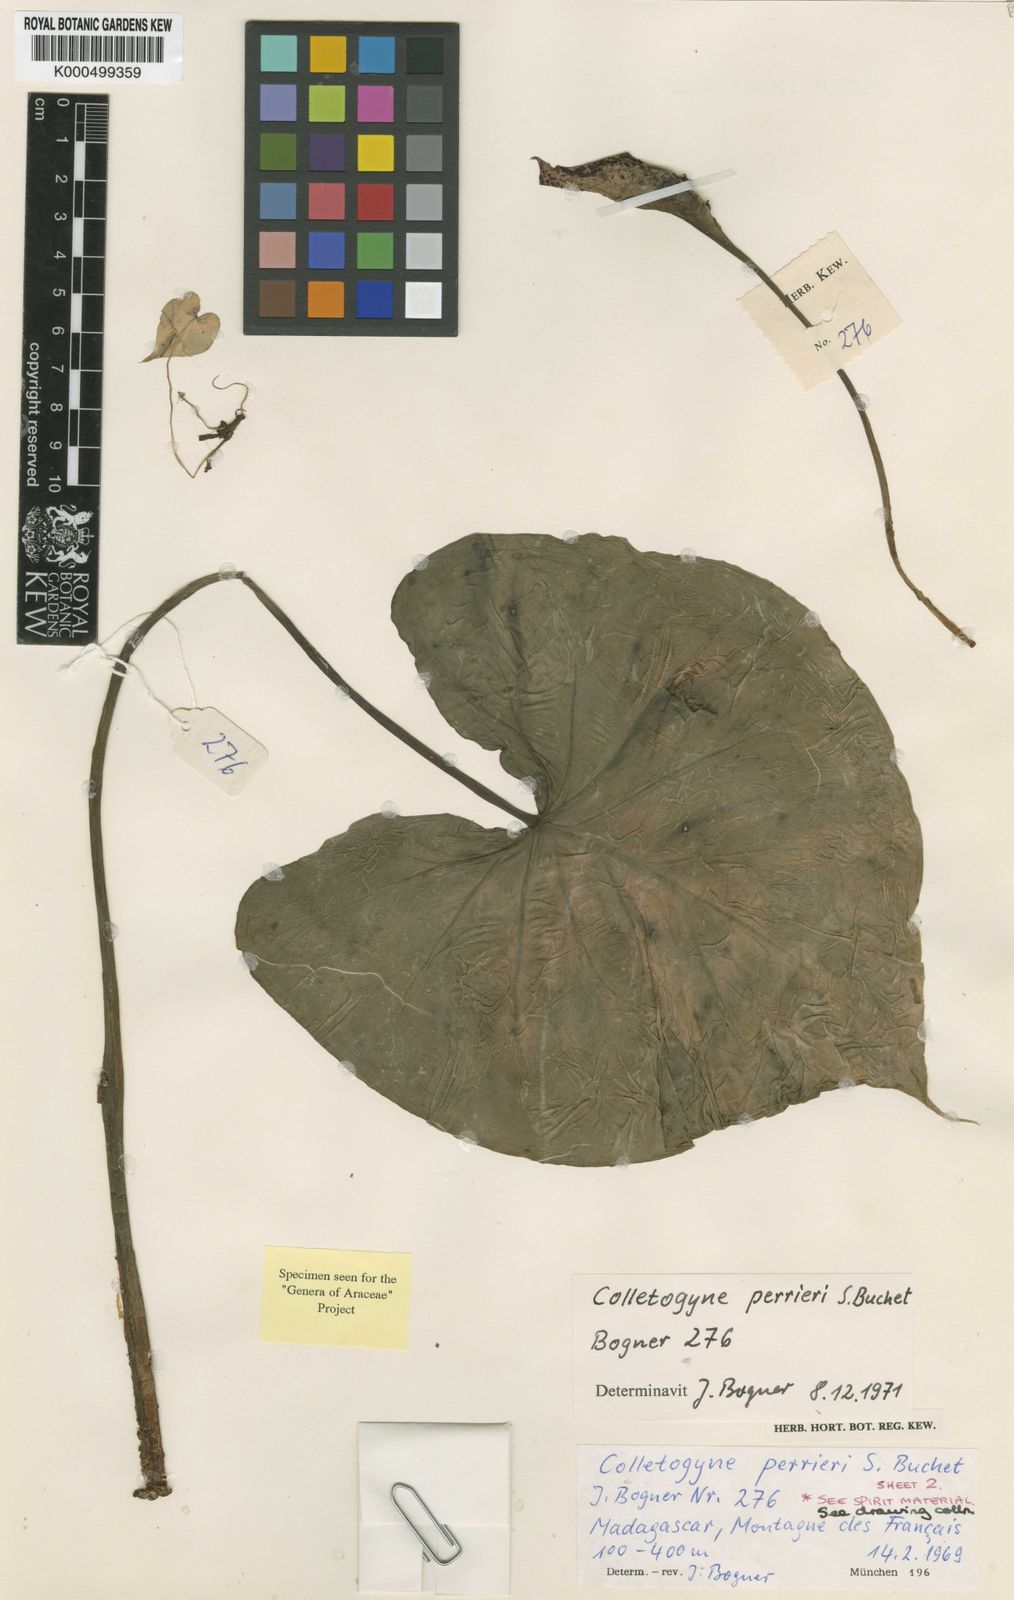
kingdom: Plantae
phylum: Tracheophyta
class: Liliopsida
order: Alismatales
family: Araceae
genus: Colletogyne
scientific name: Colletogyne perrieri
